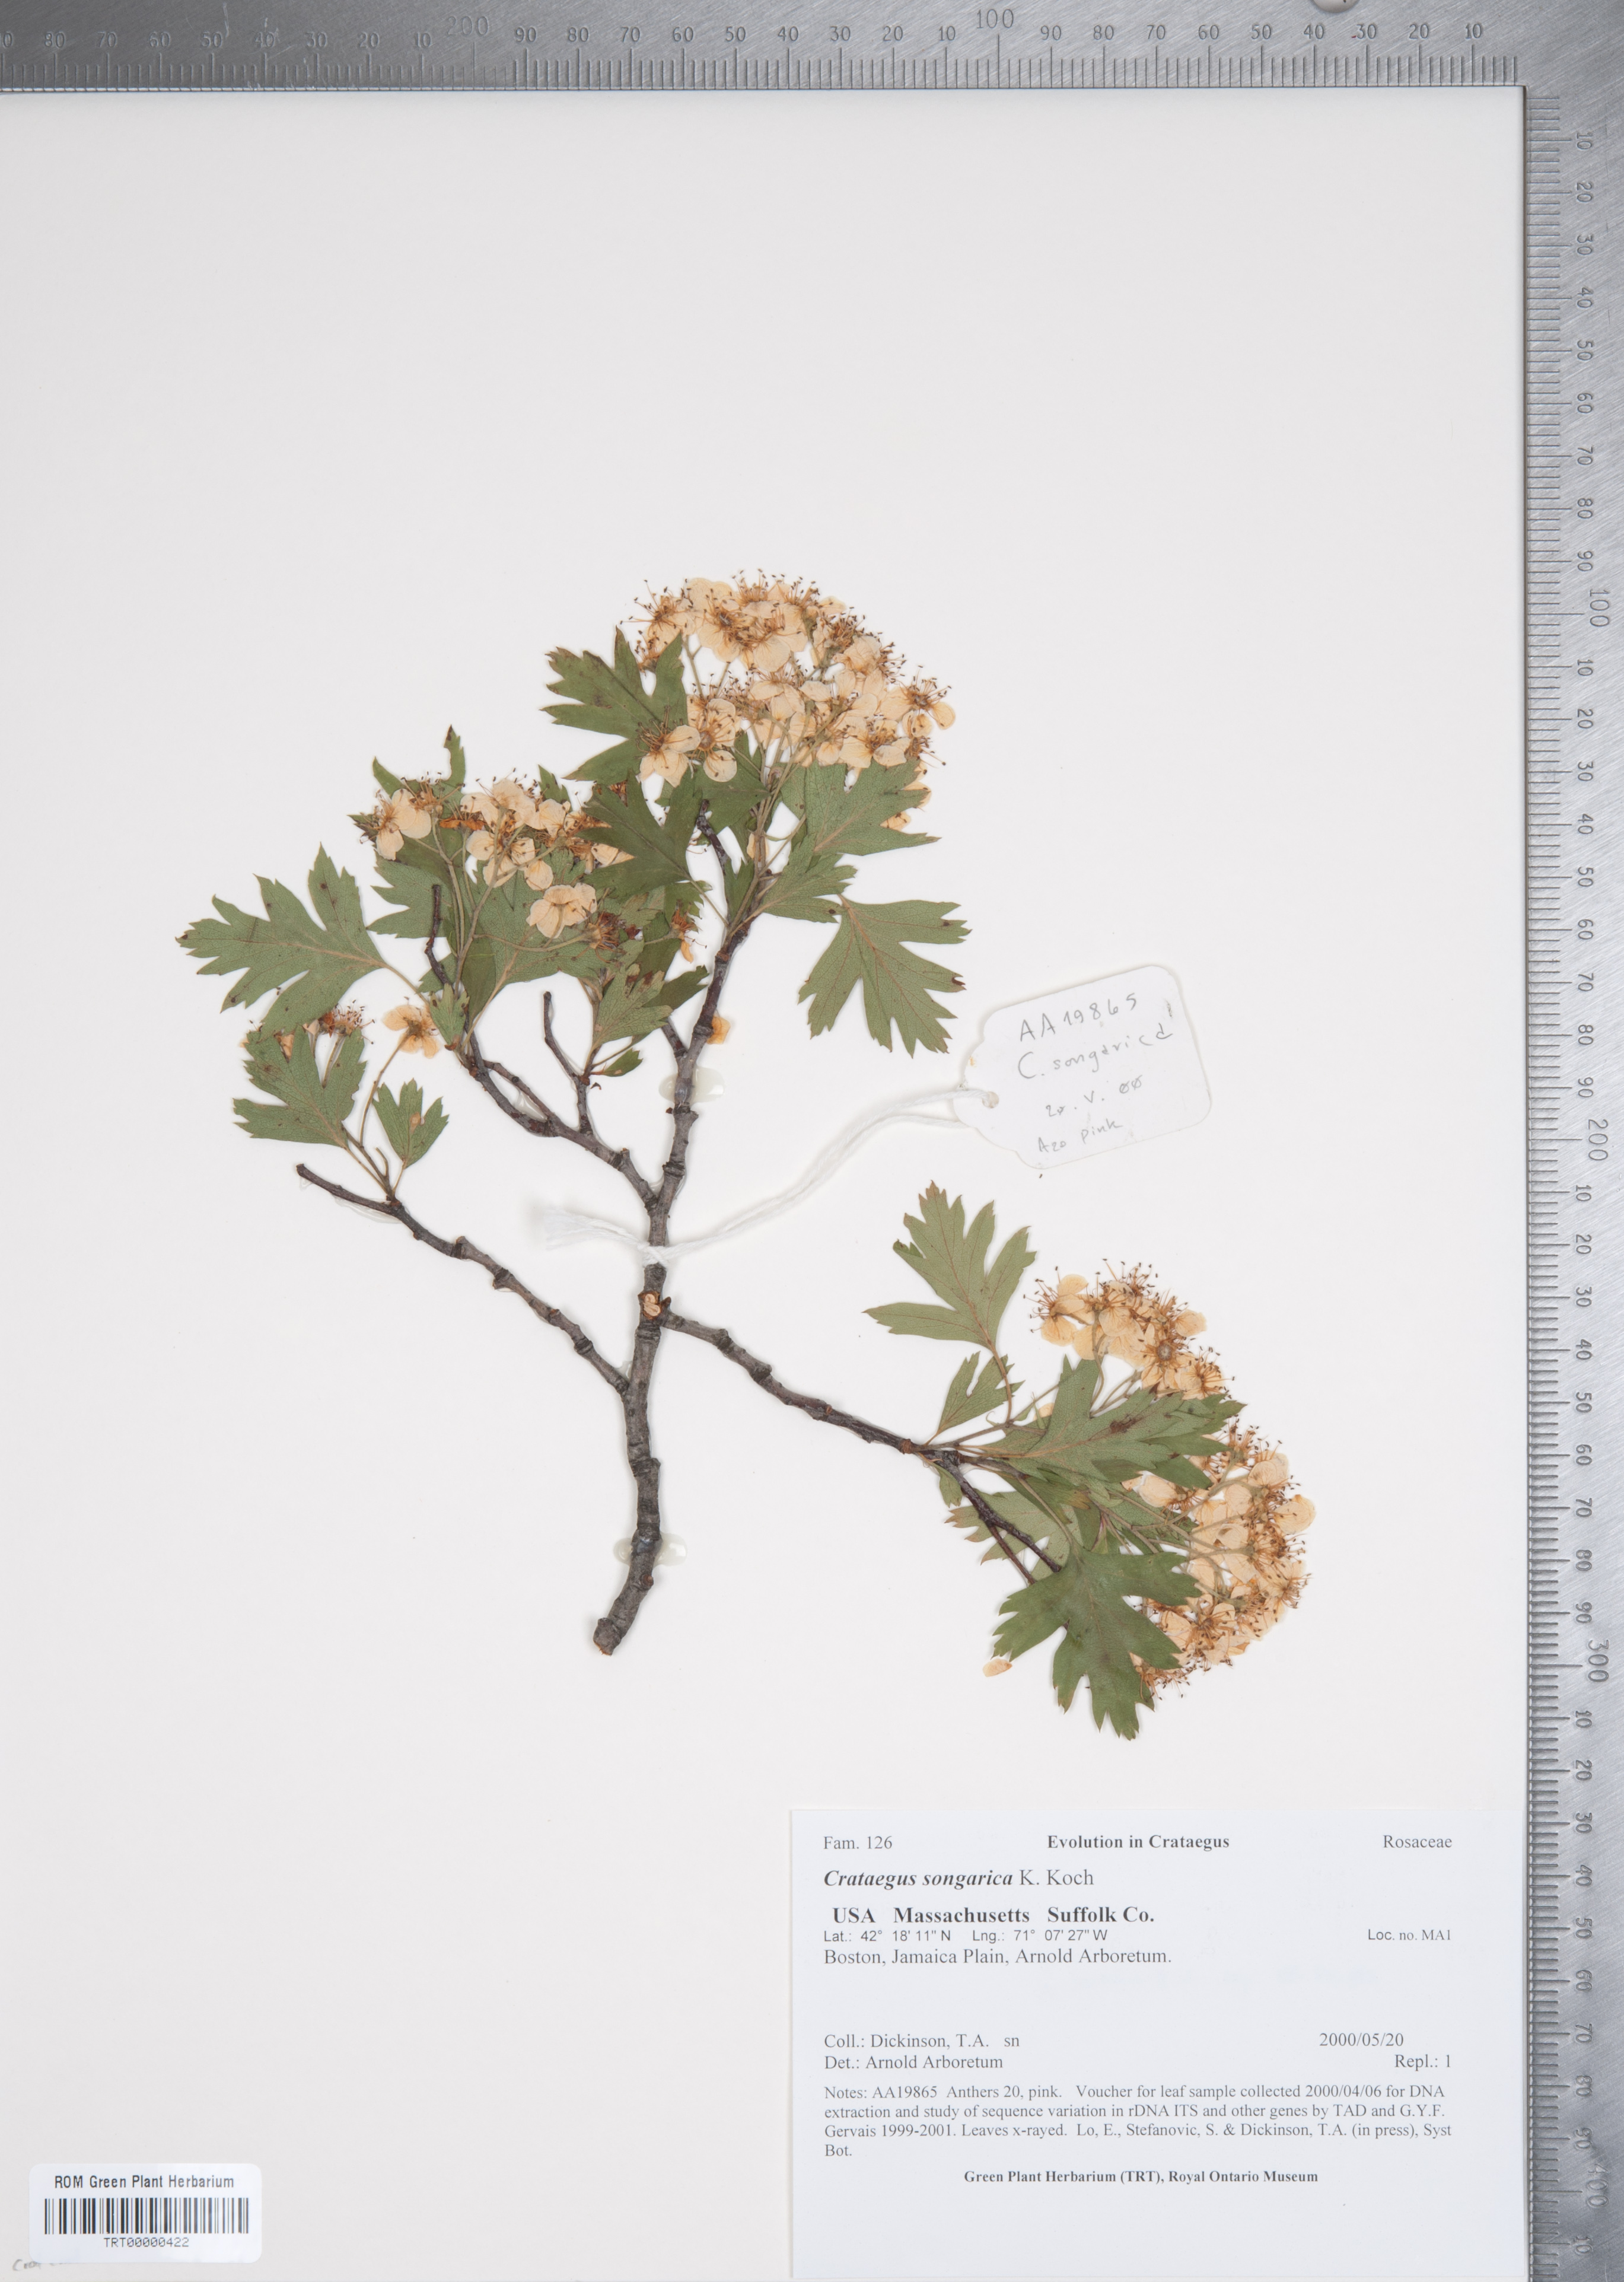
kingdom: Plantae
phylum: Tracheophyta
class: Magnoliopsida
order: Rosales
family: Rosaceae
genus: Crataegus
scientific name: Crataegus songarica
